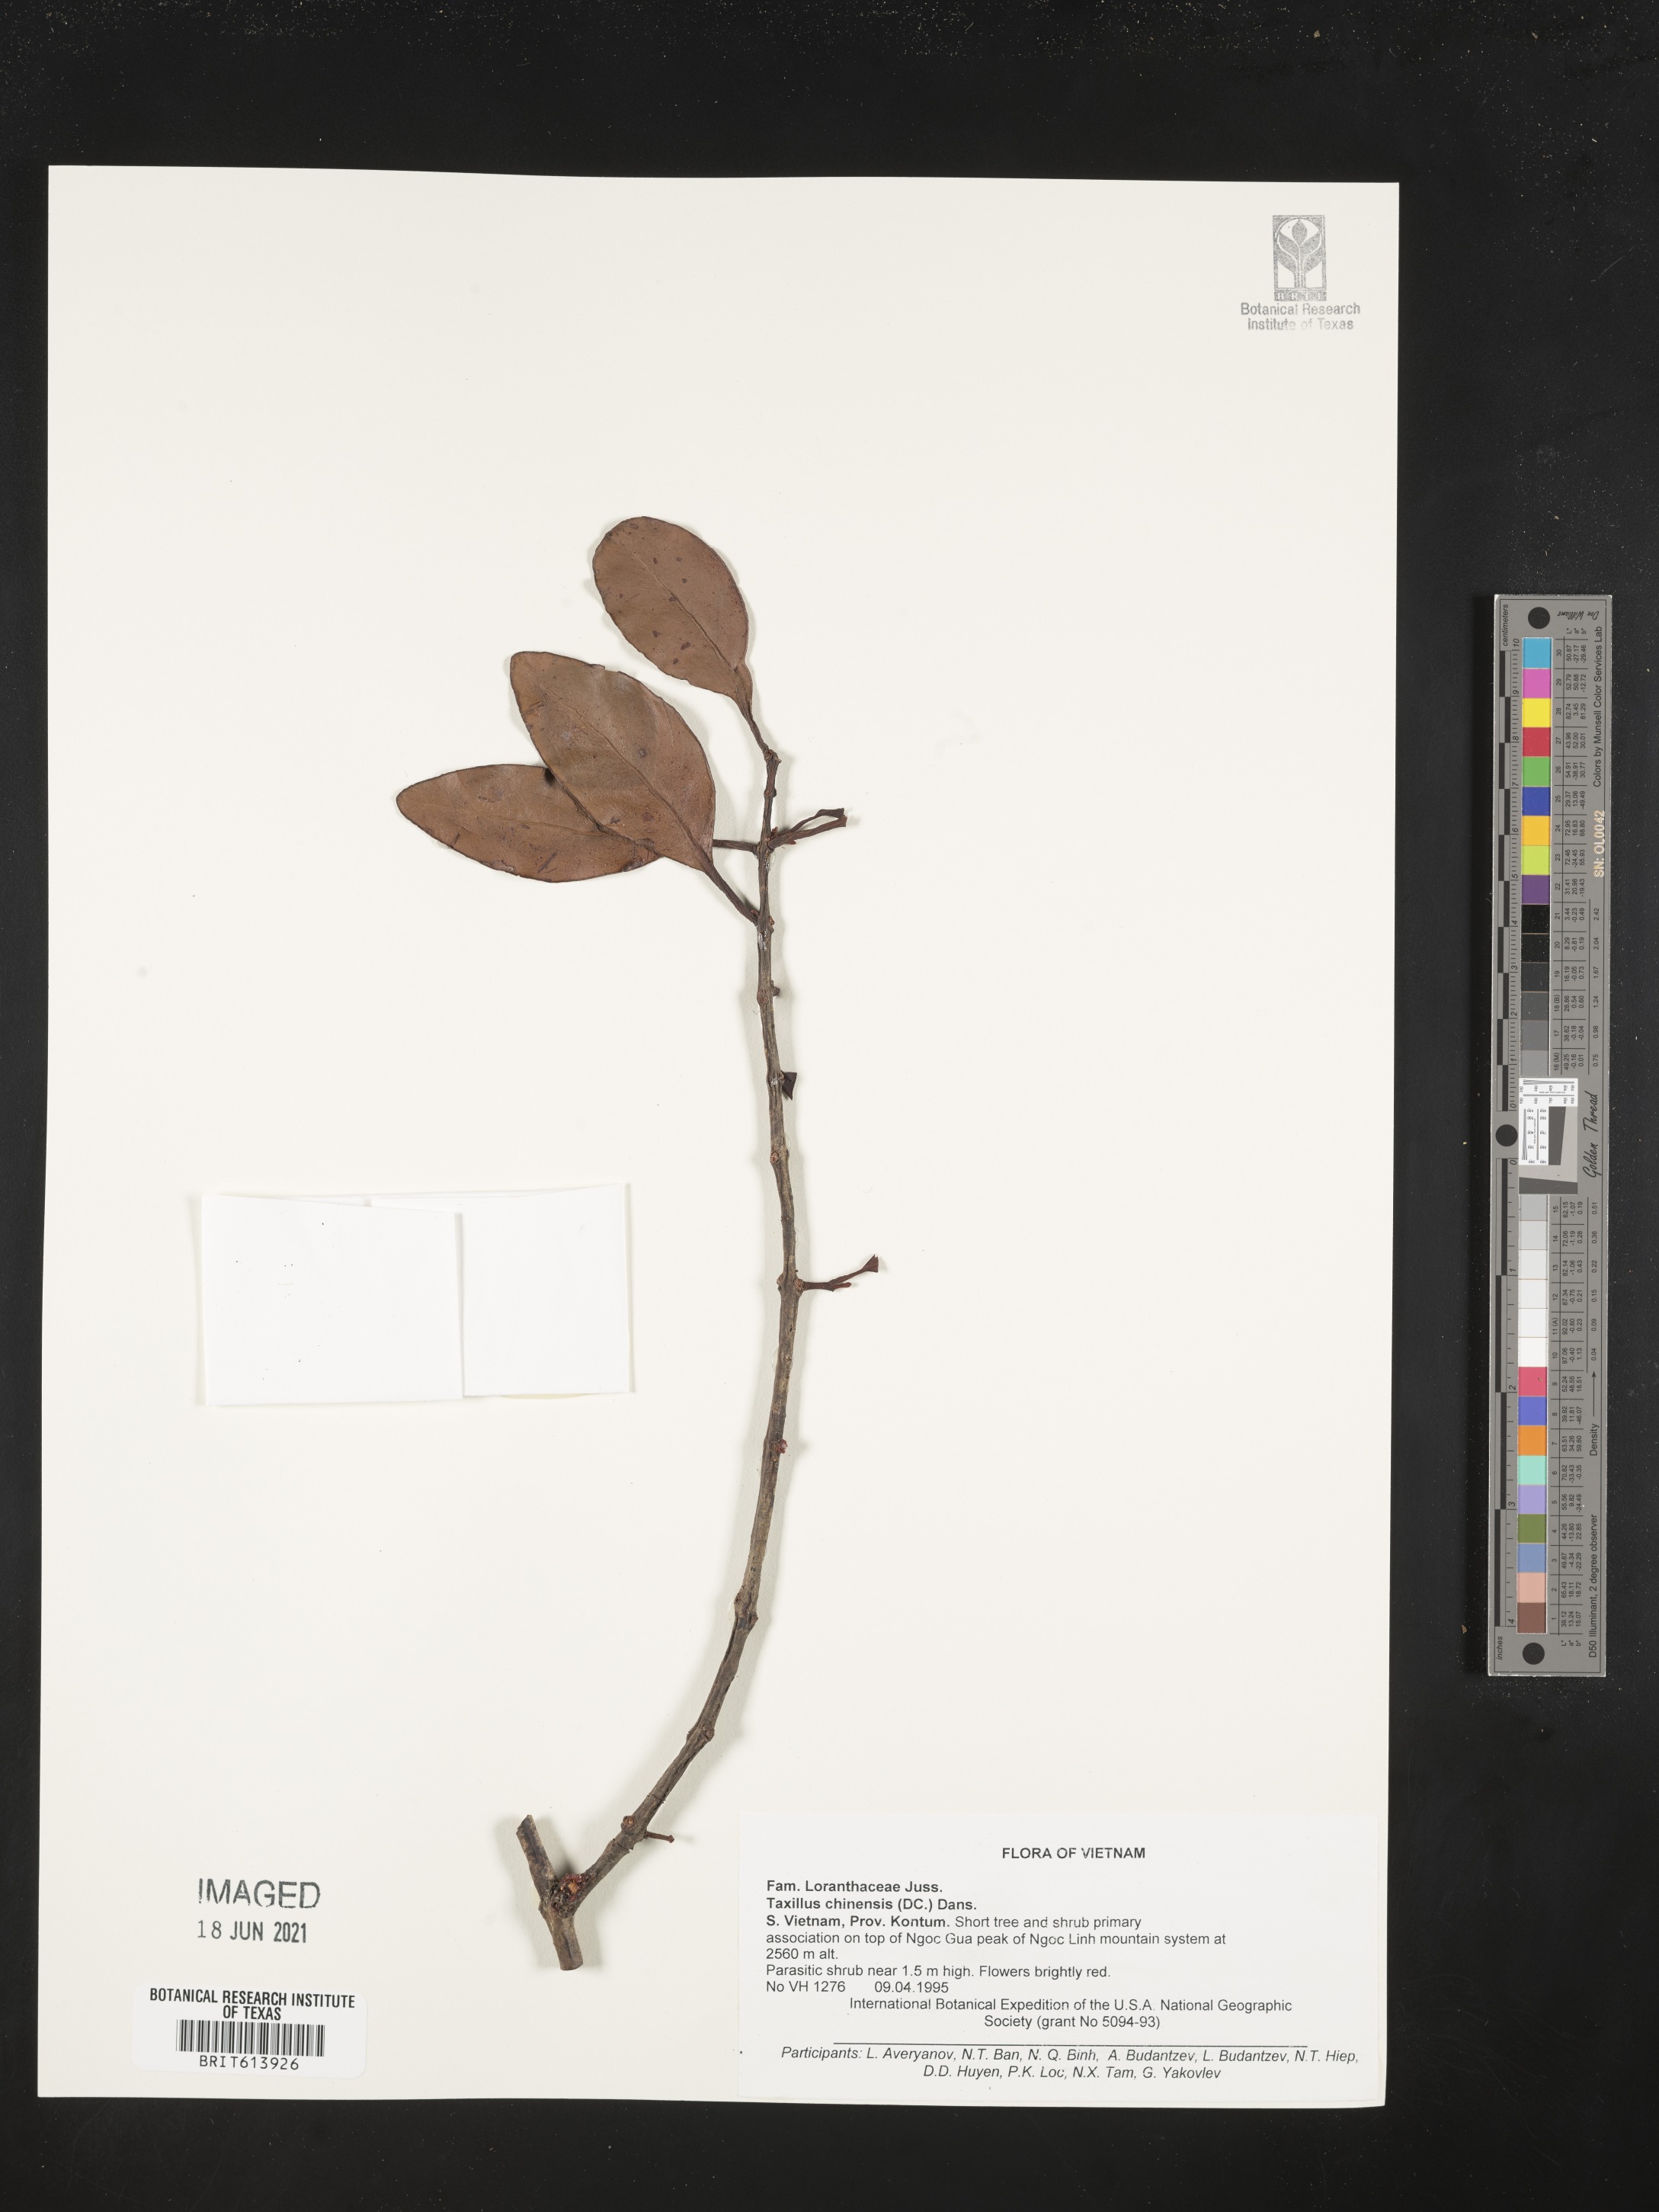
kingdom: Plantae
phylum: Tracheophyta
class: Magnoliopsida
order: Santalales
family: Loranthaceae
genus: Taxillus
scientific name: Taxillus chinensis
